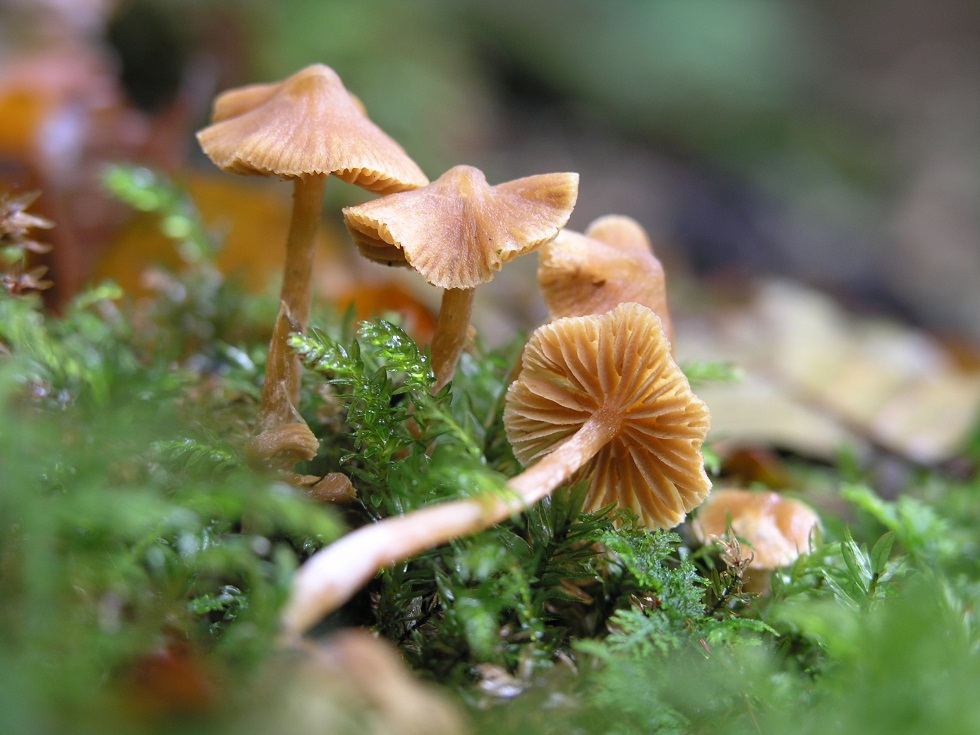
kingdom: Fungi
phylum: Basidiomycota
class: Agaricomycetes
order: Agaricales
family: Cortinariaceae
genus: Cortinarius
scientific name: Cortinarius acutus
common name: spids slørhat
